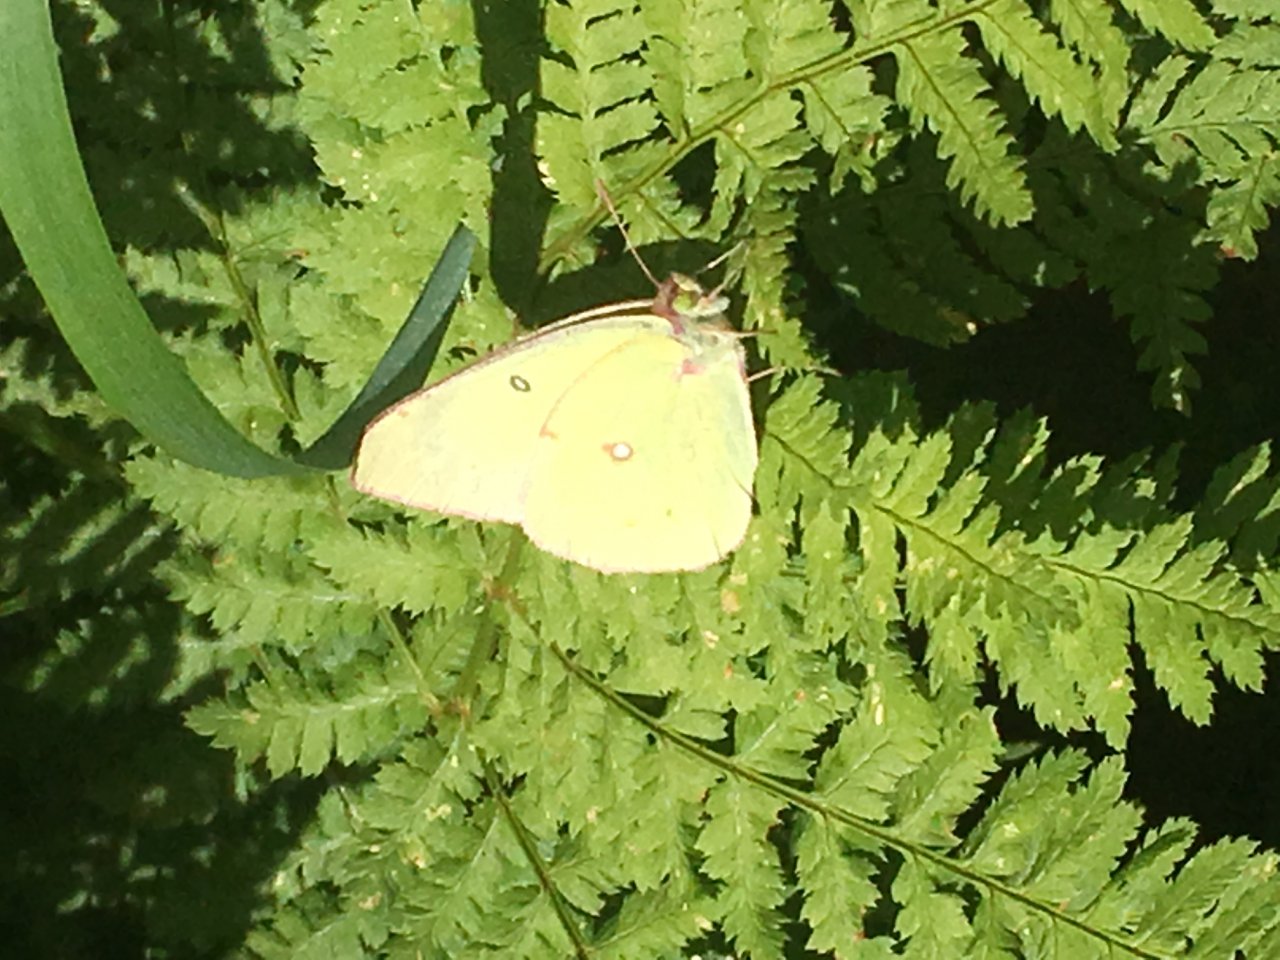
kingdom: Animalia
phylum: Arthropoda
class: Insecta
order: Lepidoptera
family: Pieridae
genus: Colias
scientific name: Colias philodice
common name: Clouded Sulphur
